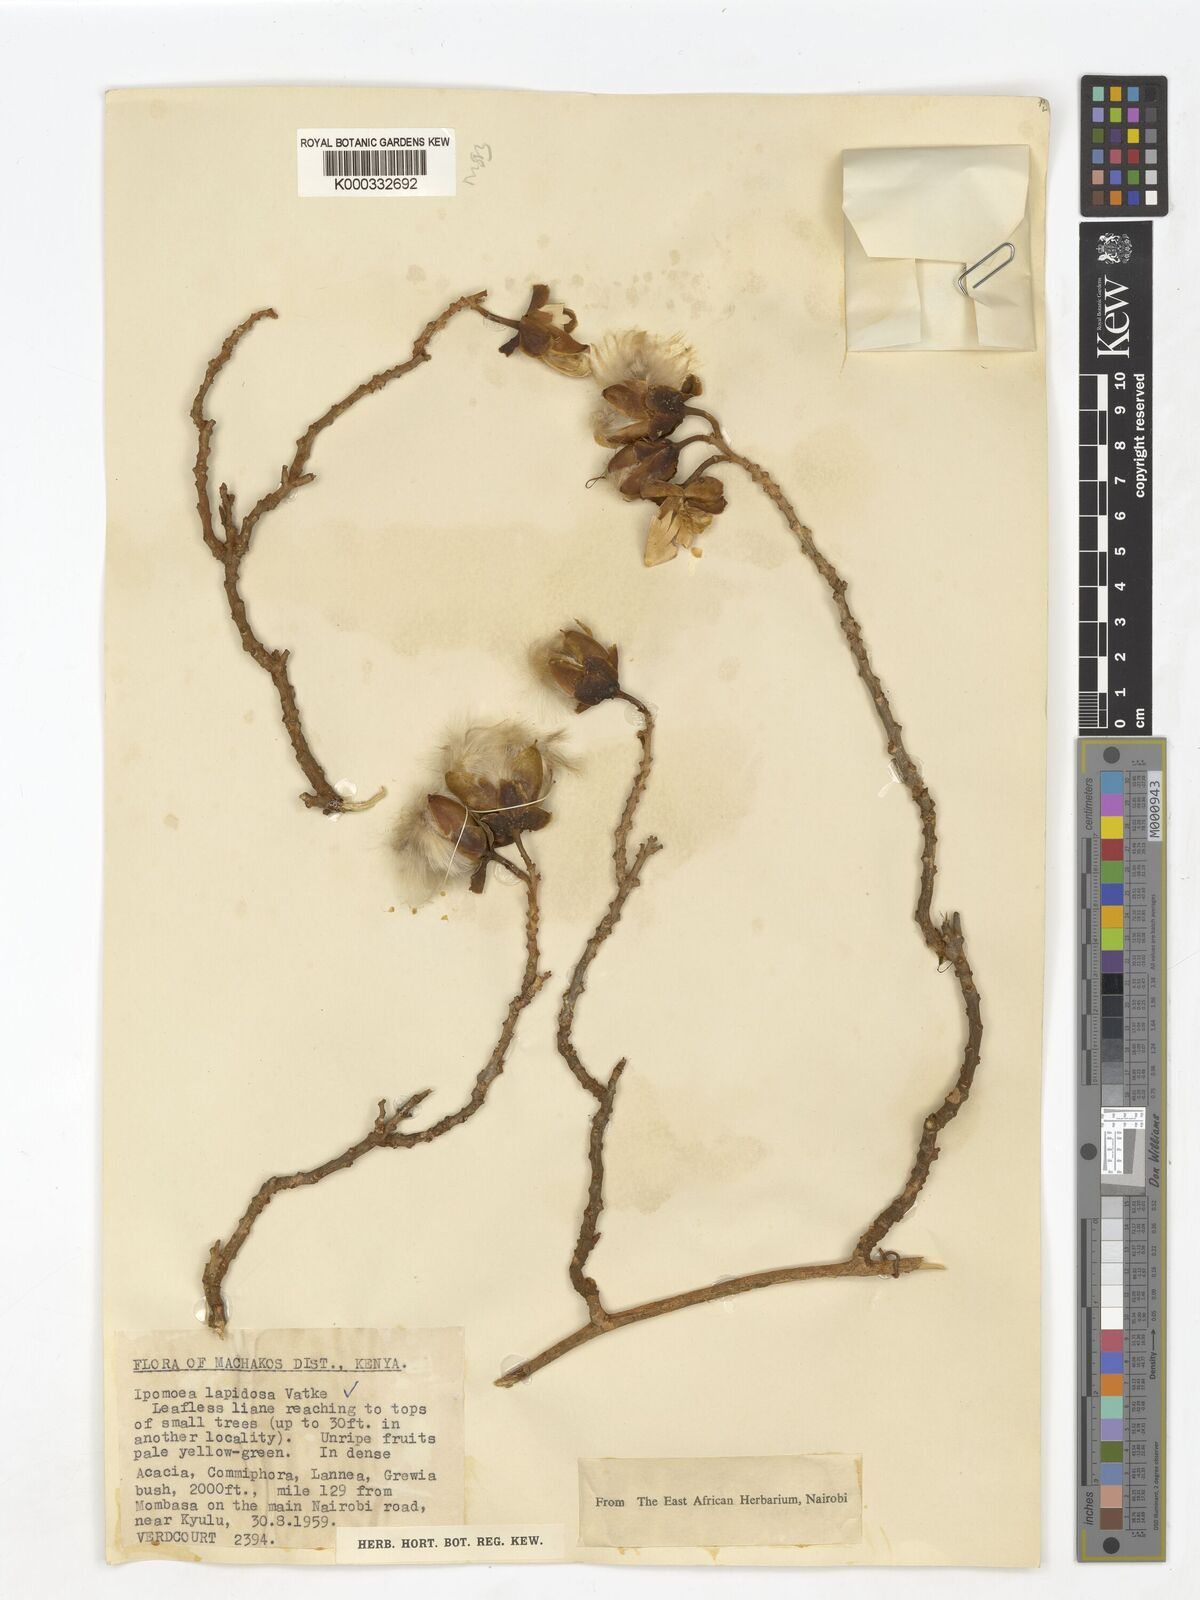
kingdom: Plantae
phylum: Tracheophyta
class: Magnoliopsida
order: Solanales
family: Convolvulaceae
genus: Ipomoea
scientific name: Ipomoea lapidosa
